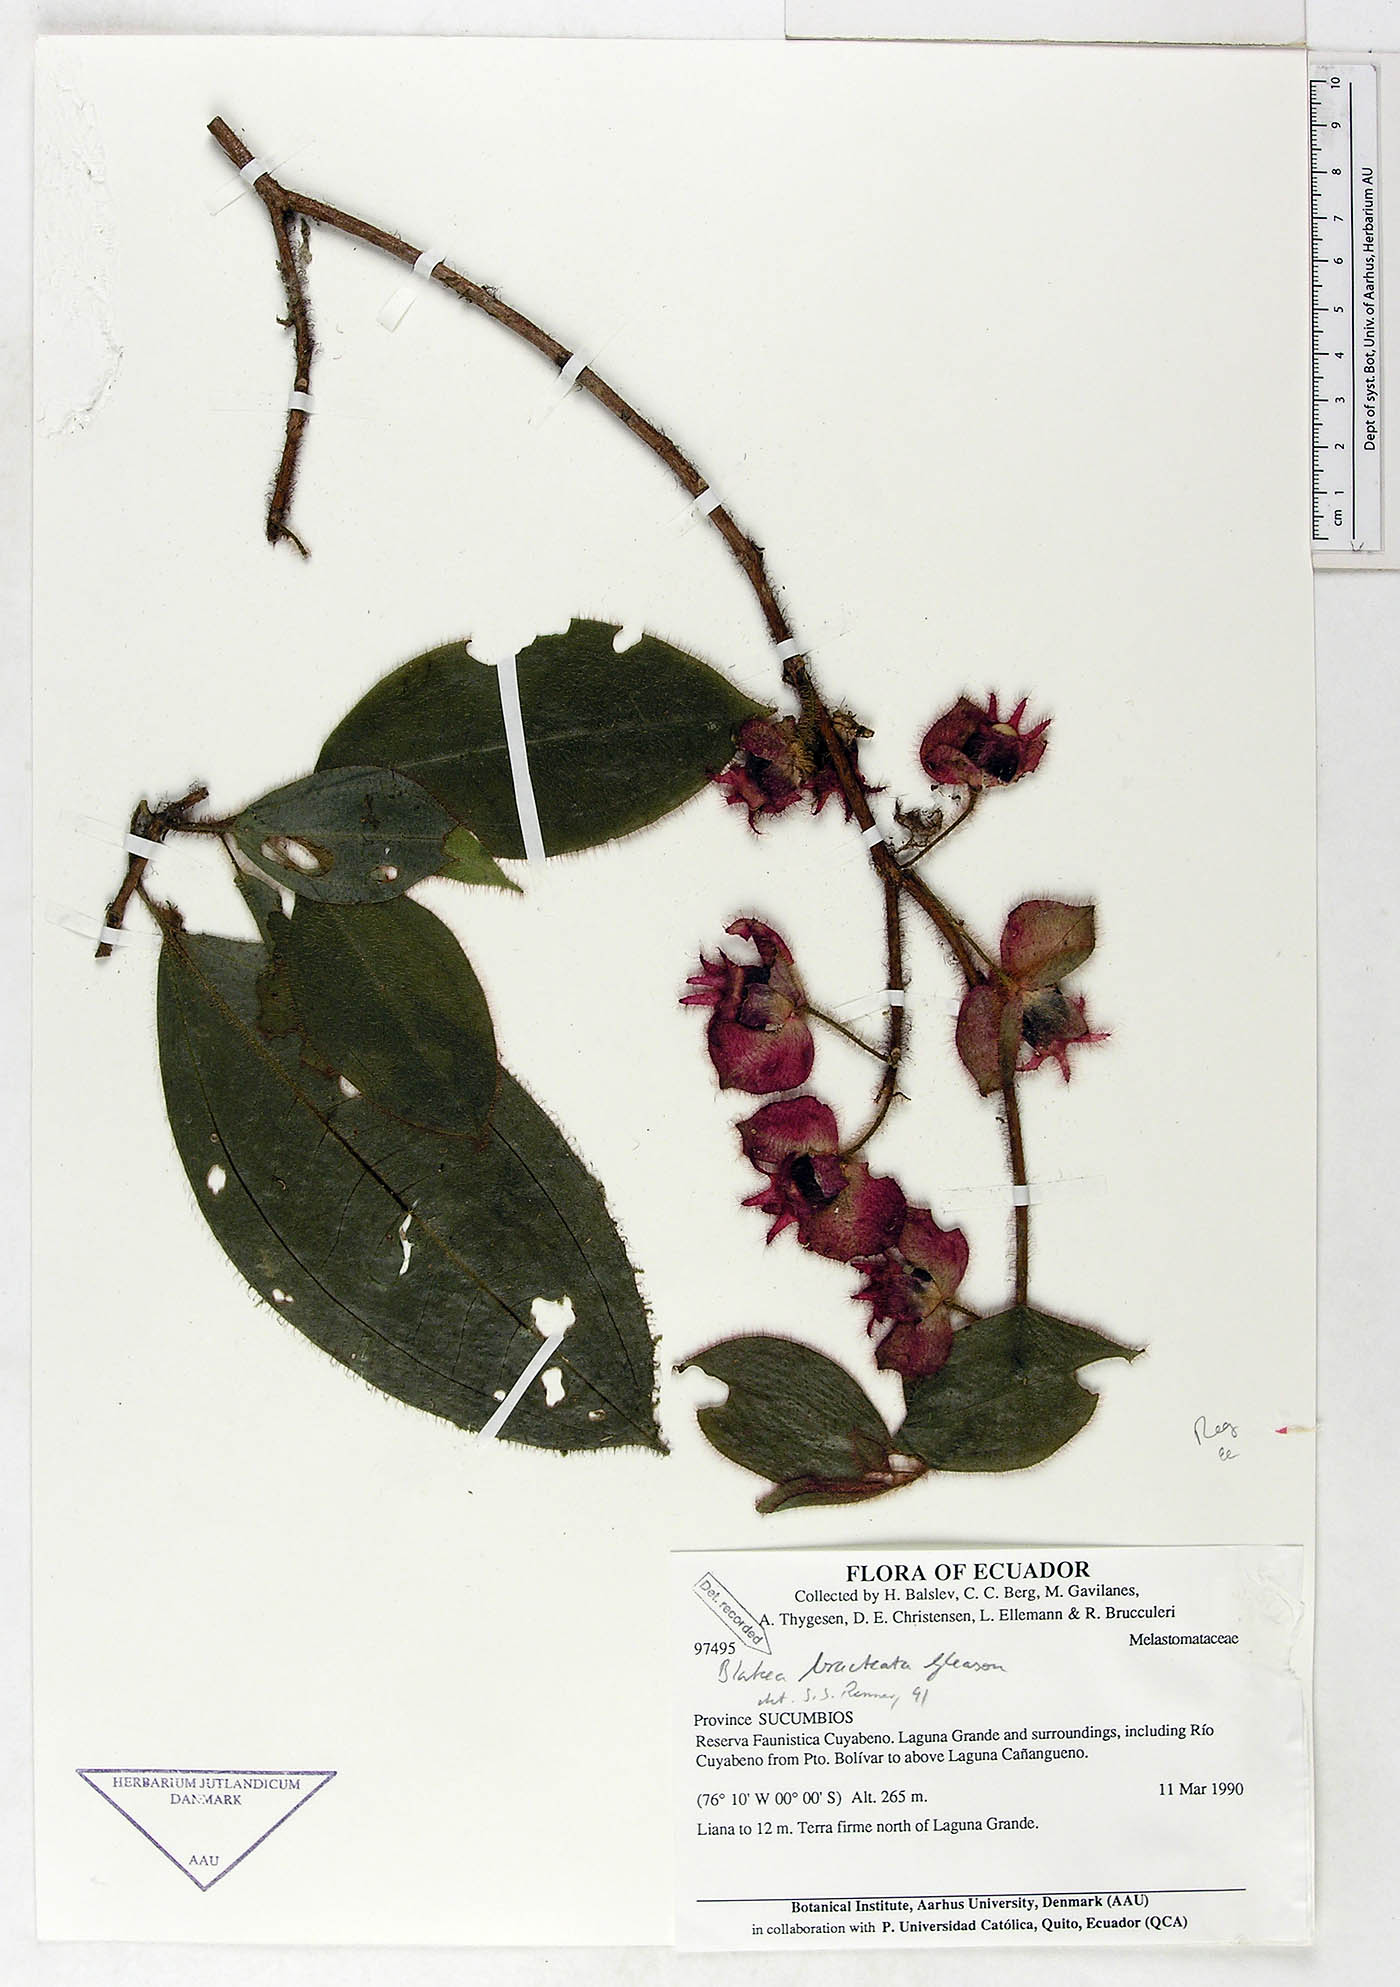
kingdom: Plantae
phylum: Tracheophyta
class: Magnoliopsida
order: Myrtales
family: Melastomataceae
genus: Blakea
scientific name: Blakea bracteata
